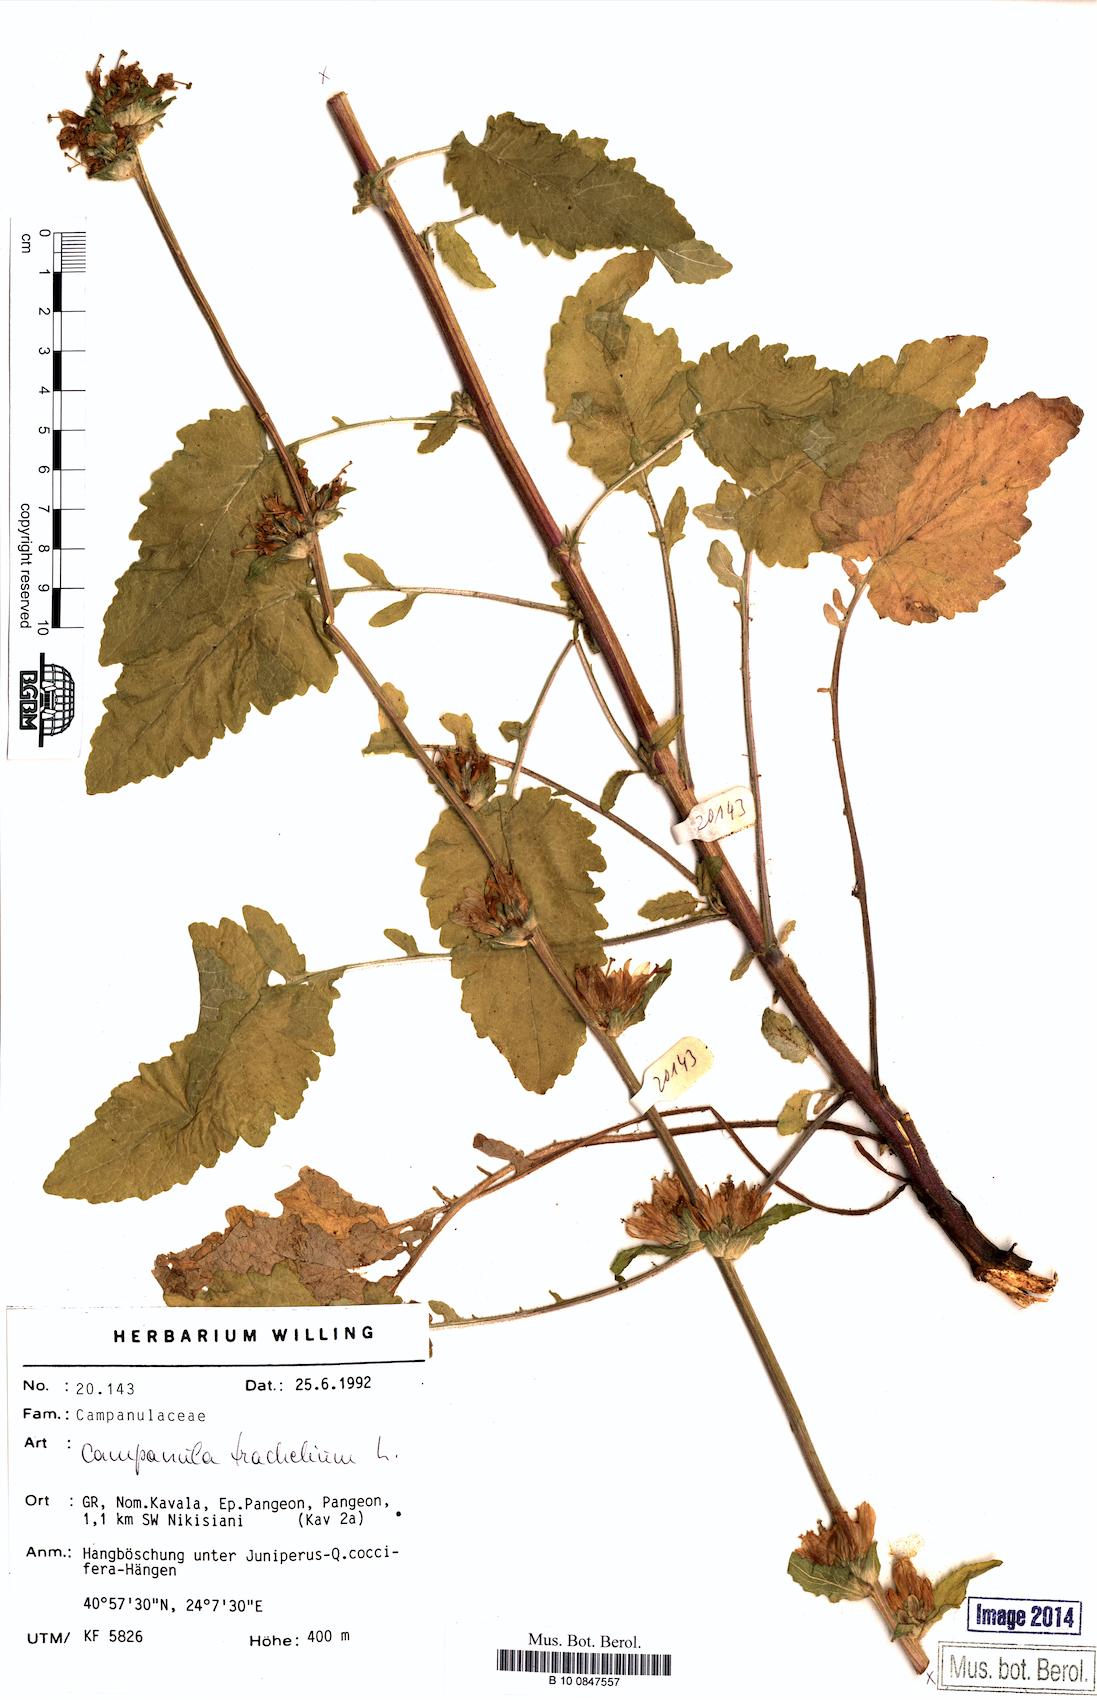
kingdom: Plantae
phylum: Tracheophyta
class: Magnoliopsida
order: Asterales
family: Campanulaceae
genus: Campanula
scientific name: Campanula trachelium
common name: Nettle-leaved bellflower
